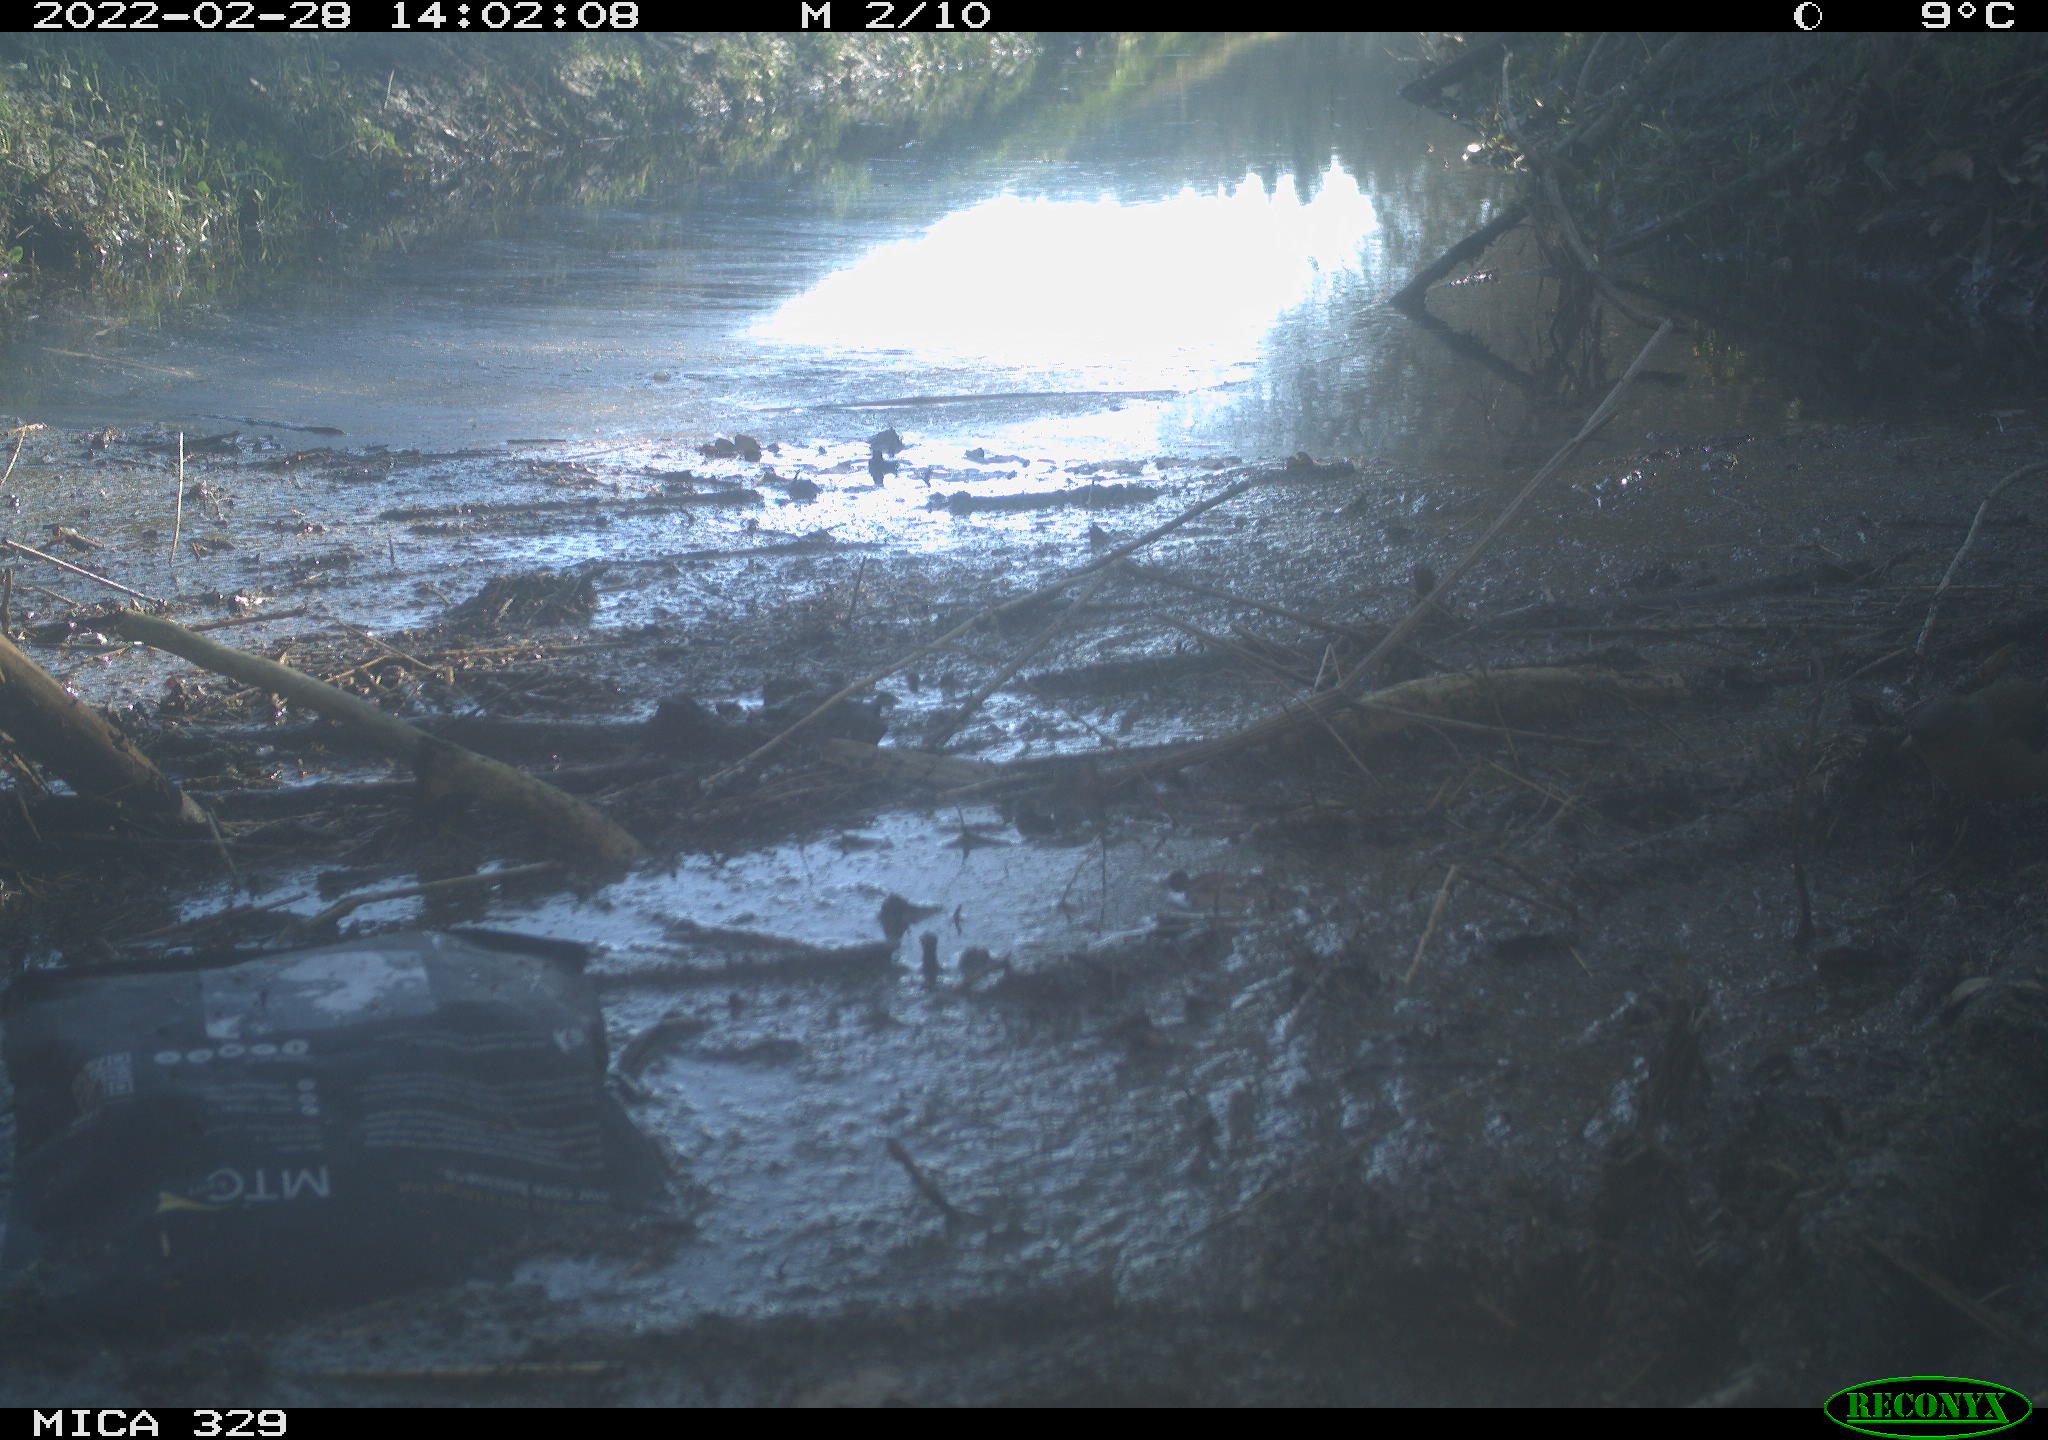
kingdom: Animalia
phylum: Chordata
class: Aves
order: Passeriformes
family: Troglodytidae
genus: Troglodytes
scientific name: Troglodytes troglodytes
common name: Eurasian wren
